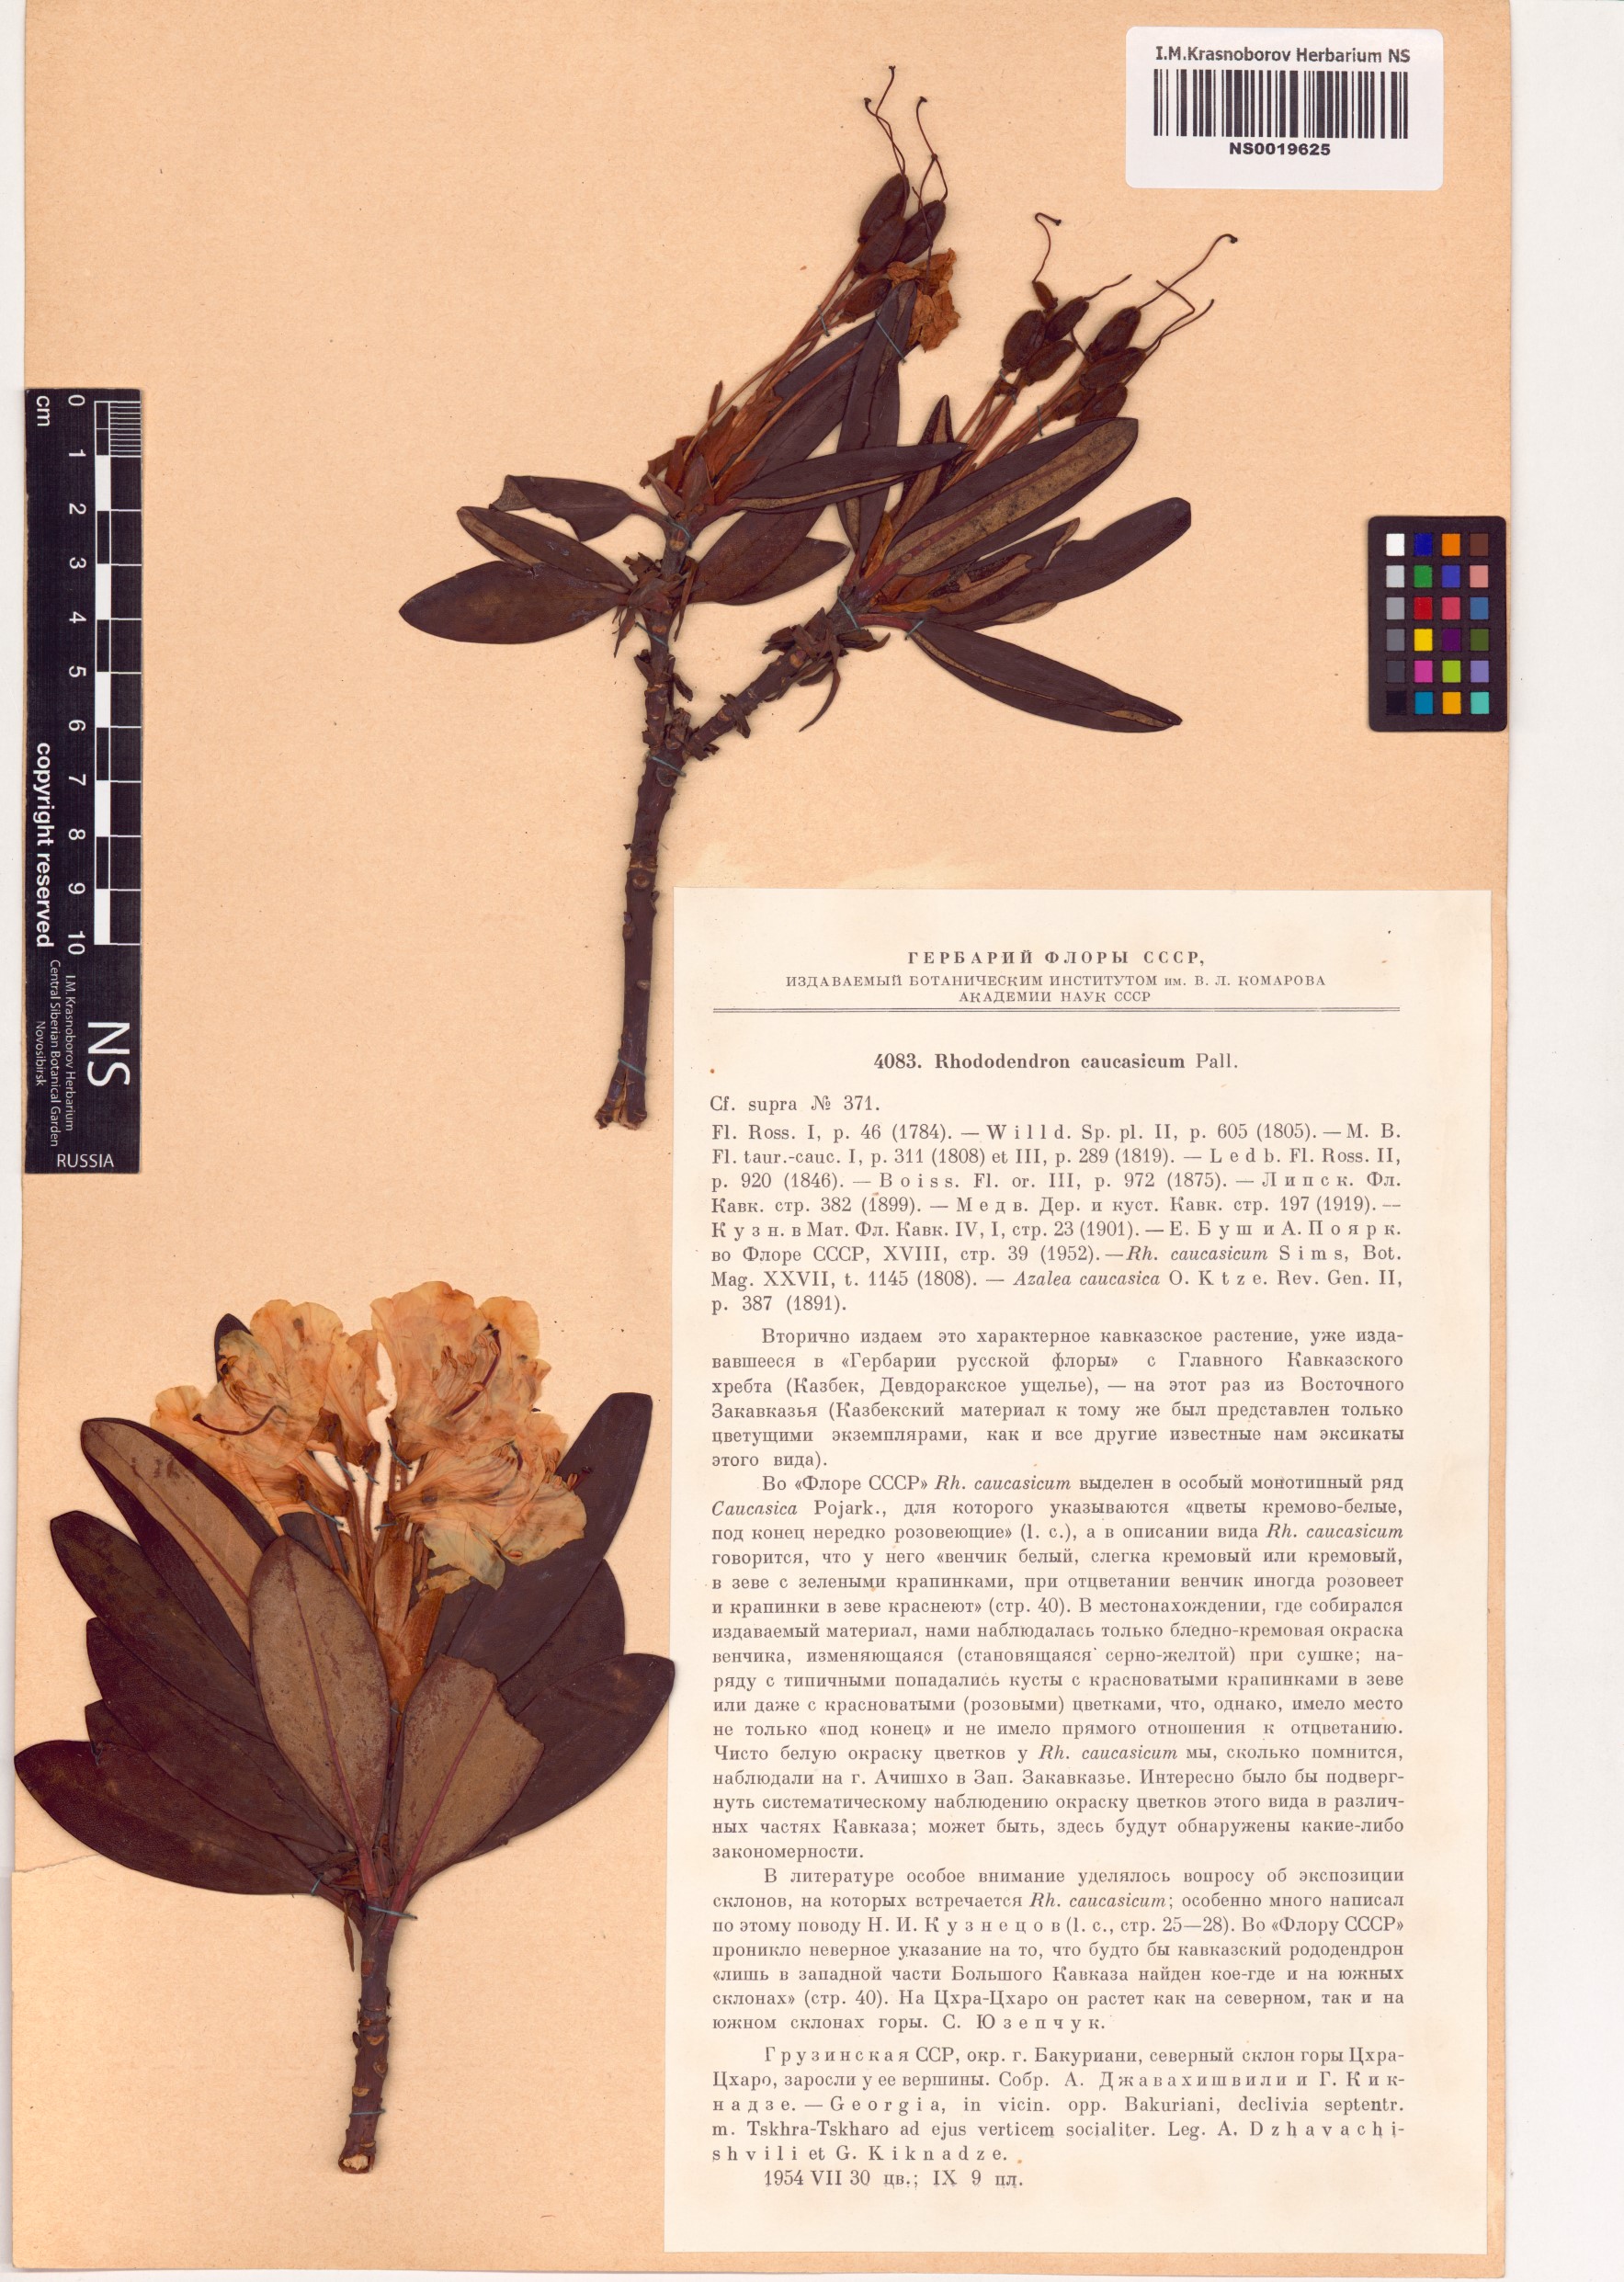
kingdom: Plantae
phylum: Tracheophyta
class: Magnoliopsida
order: Ericales
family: Ericaceae
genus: Rhododendron
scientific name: Rhododendron caucasicum
